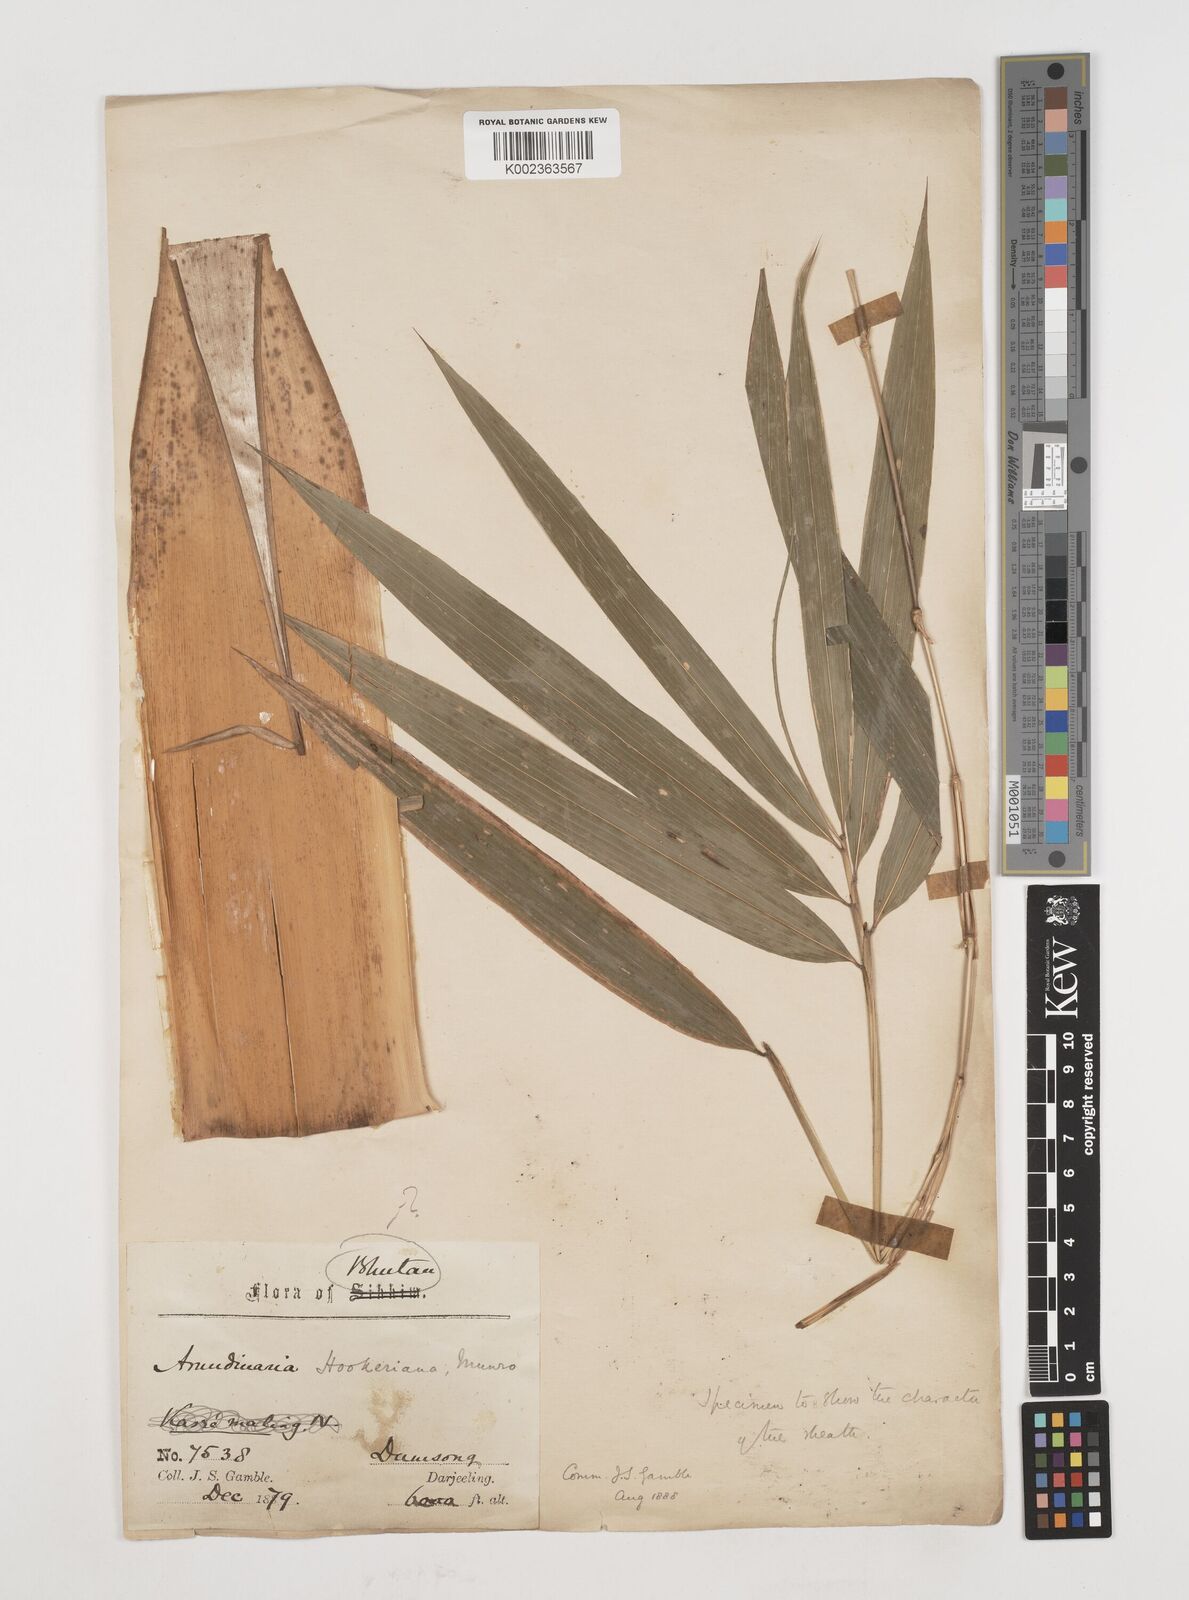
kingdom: Plantae
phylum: Tracheophyta
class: Liliopsida
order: Poales
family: Poaceae
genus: Himalayacalamus
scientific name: Himalayacalamus hookerianus
